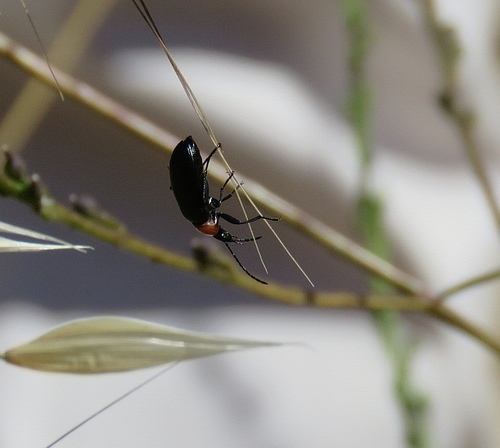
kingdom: Animalia
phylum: Arthropoda
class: Insecta
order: Coleoptera
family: Tenebrionidae
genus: Heliotaurus
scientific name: Heliotaurus ruficollis
